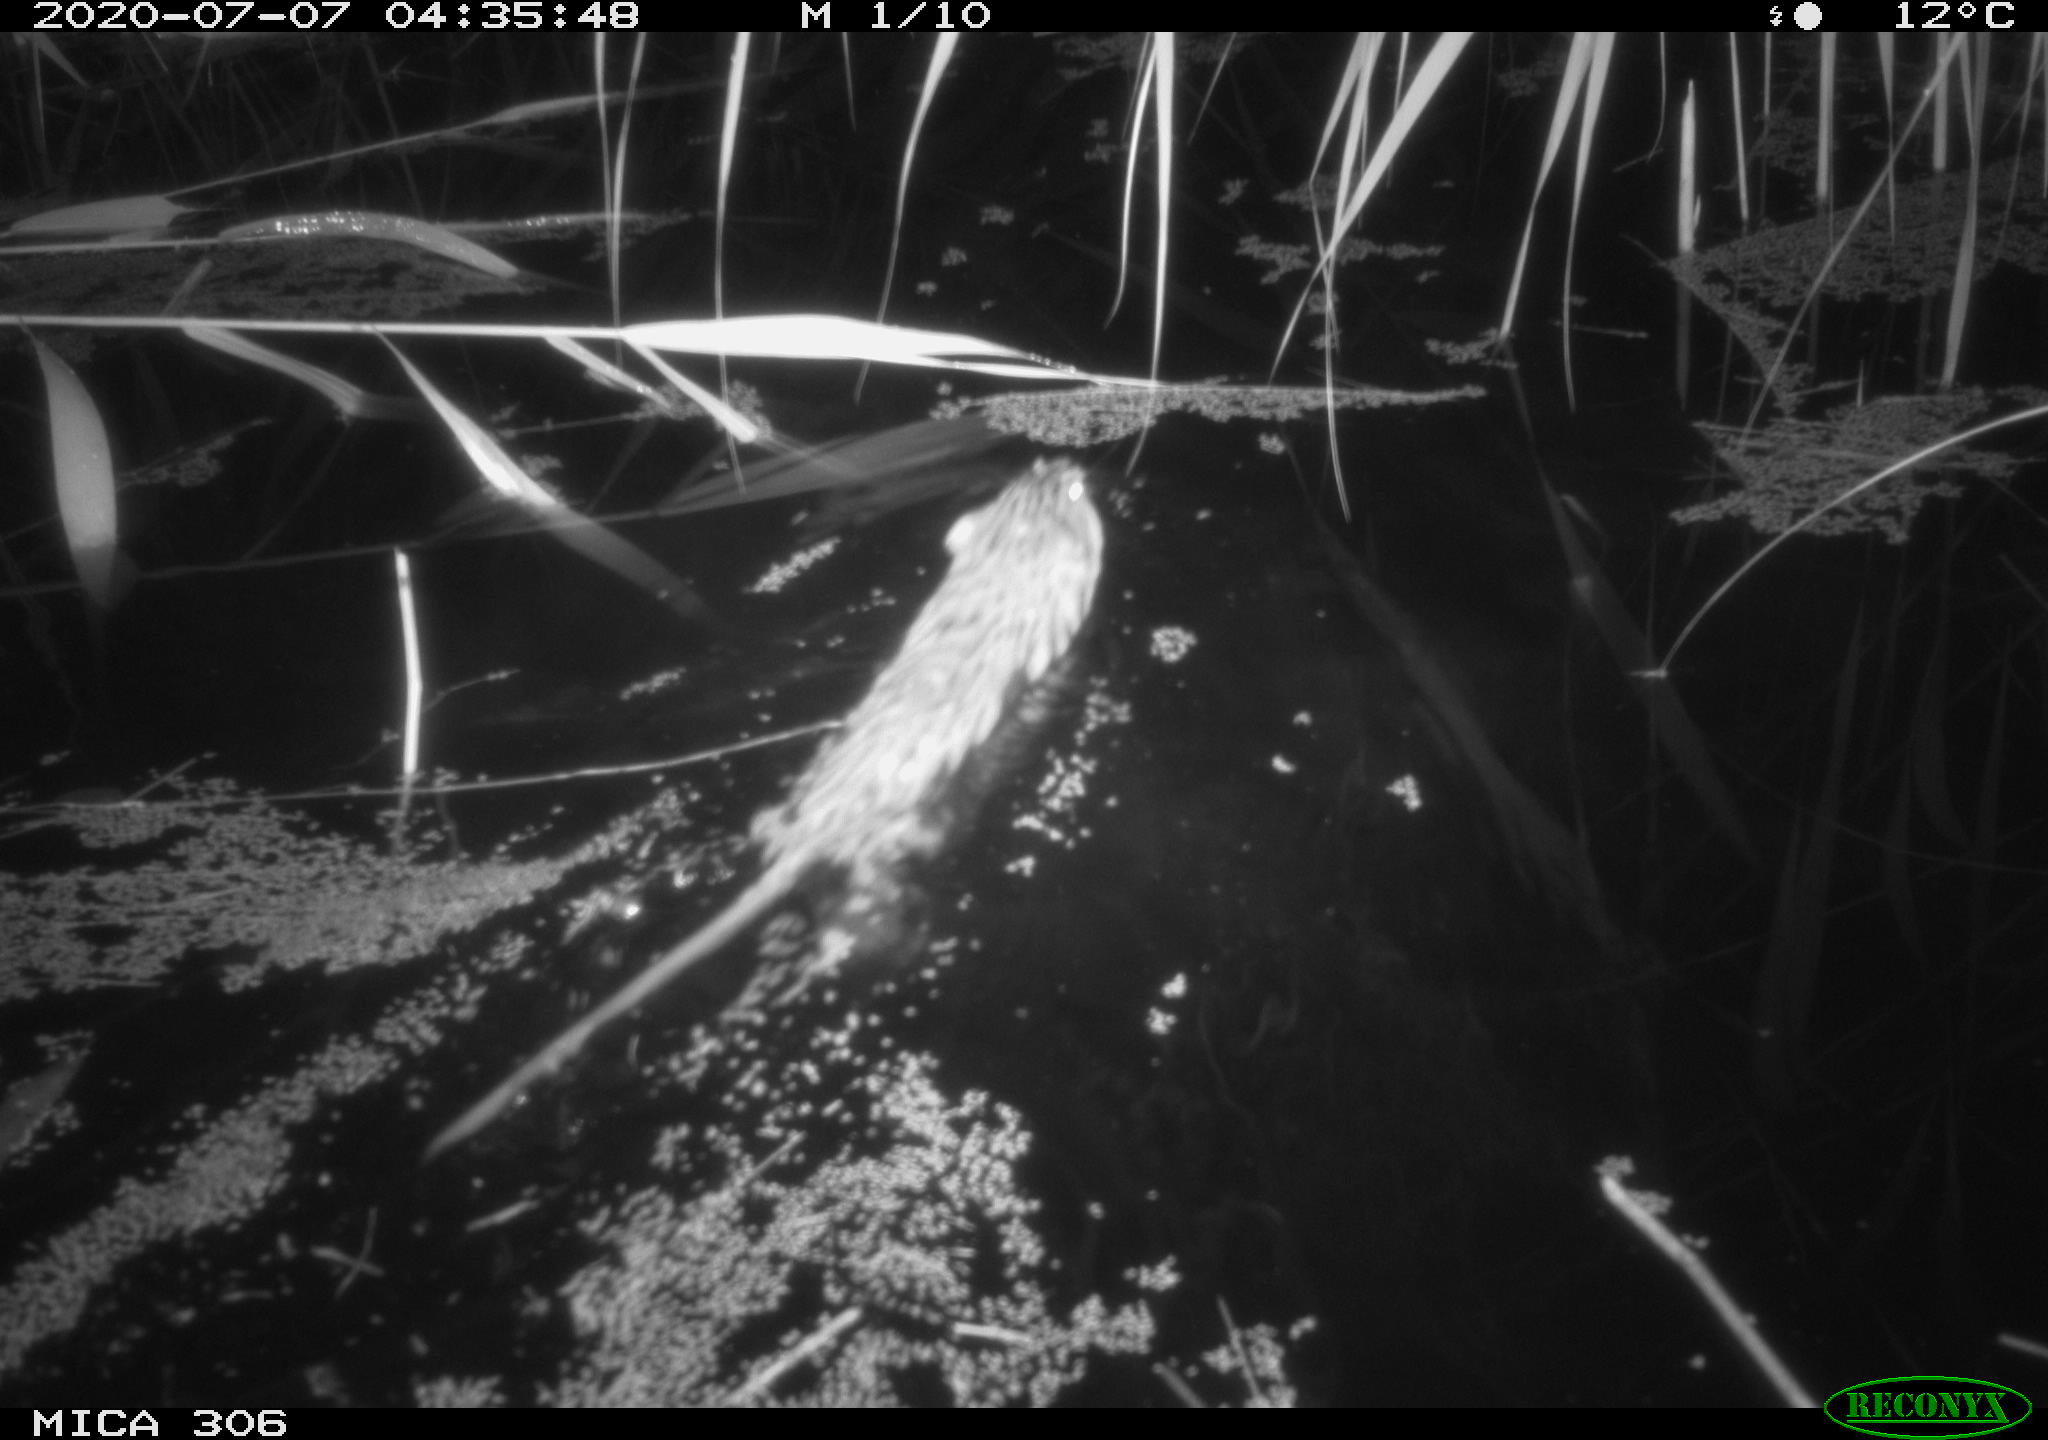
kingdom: Animalia
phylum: Chordata
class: Mammalia
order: Rodentia
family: Muridae
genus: Rattus
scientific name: Rattus norvegicus
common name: Brown rat
